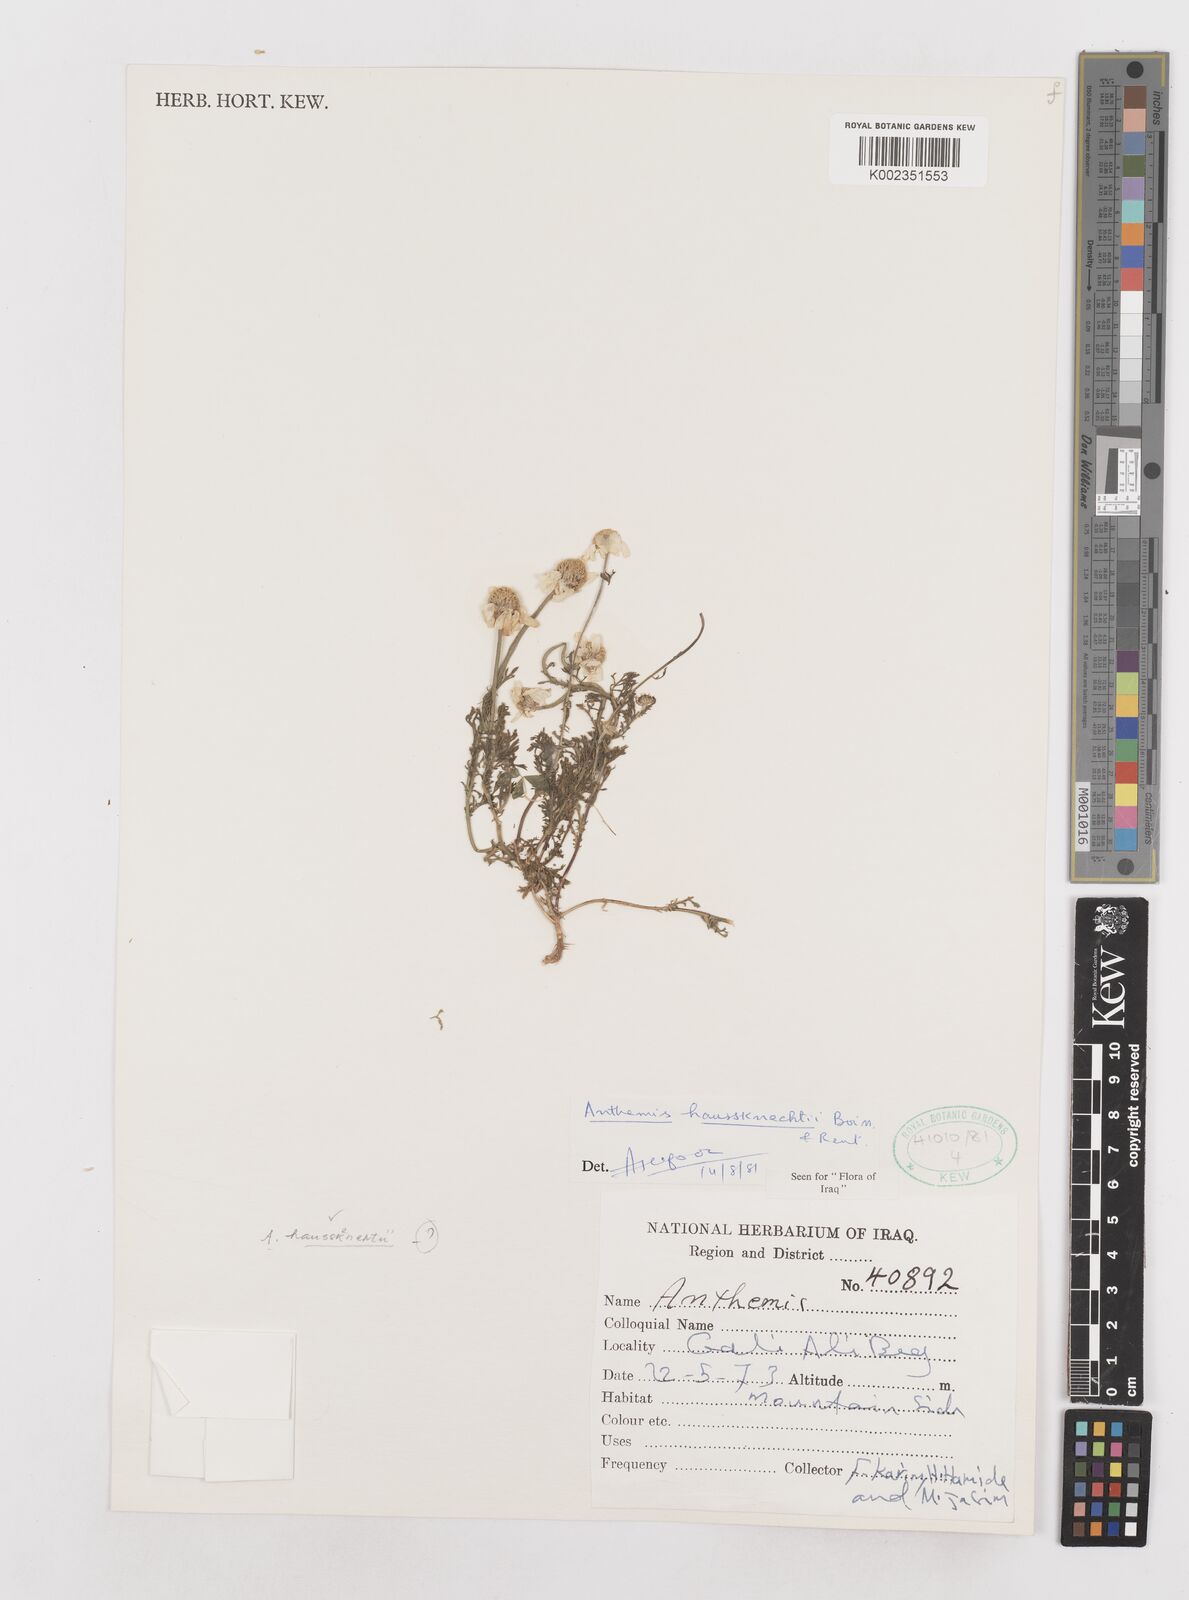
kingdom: Plantae
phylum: Tracheophyta
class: Magnoliopsida
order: Asterales
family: Asteraceae
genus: Anthemis
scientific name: Anthemis haussknechtii
